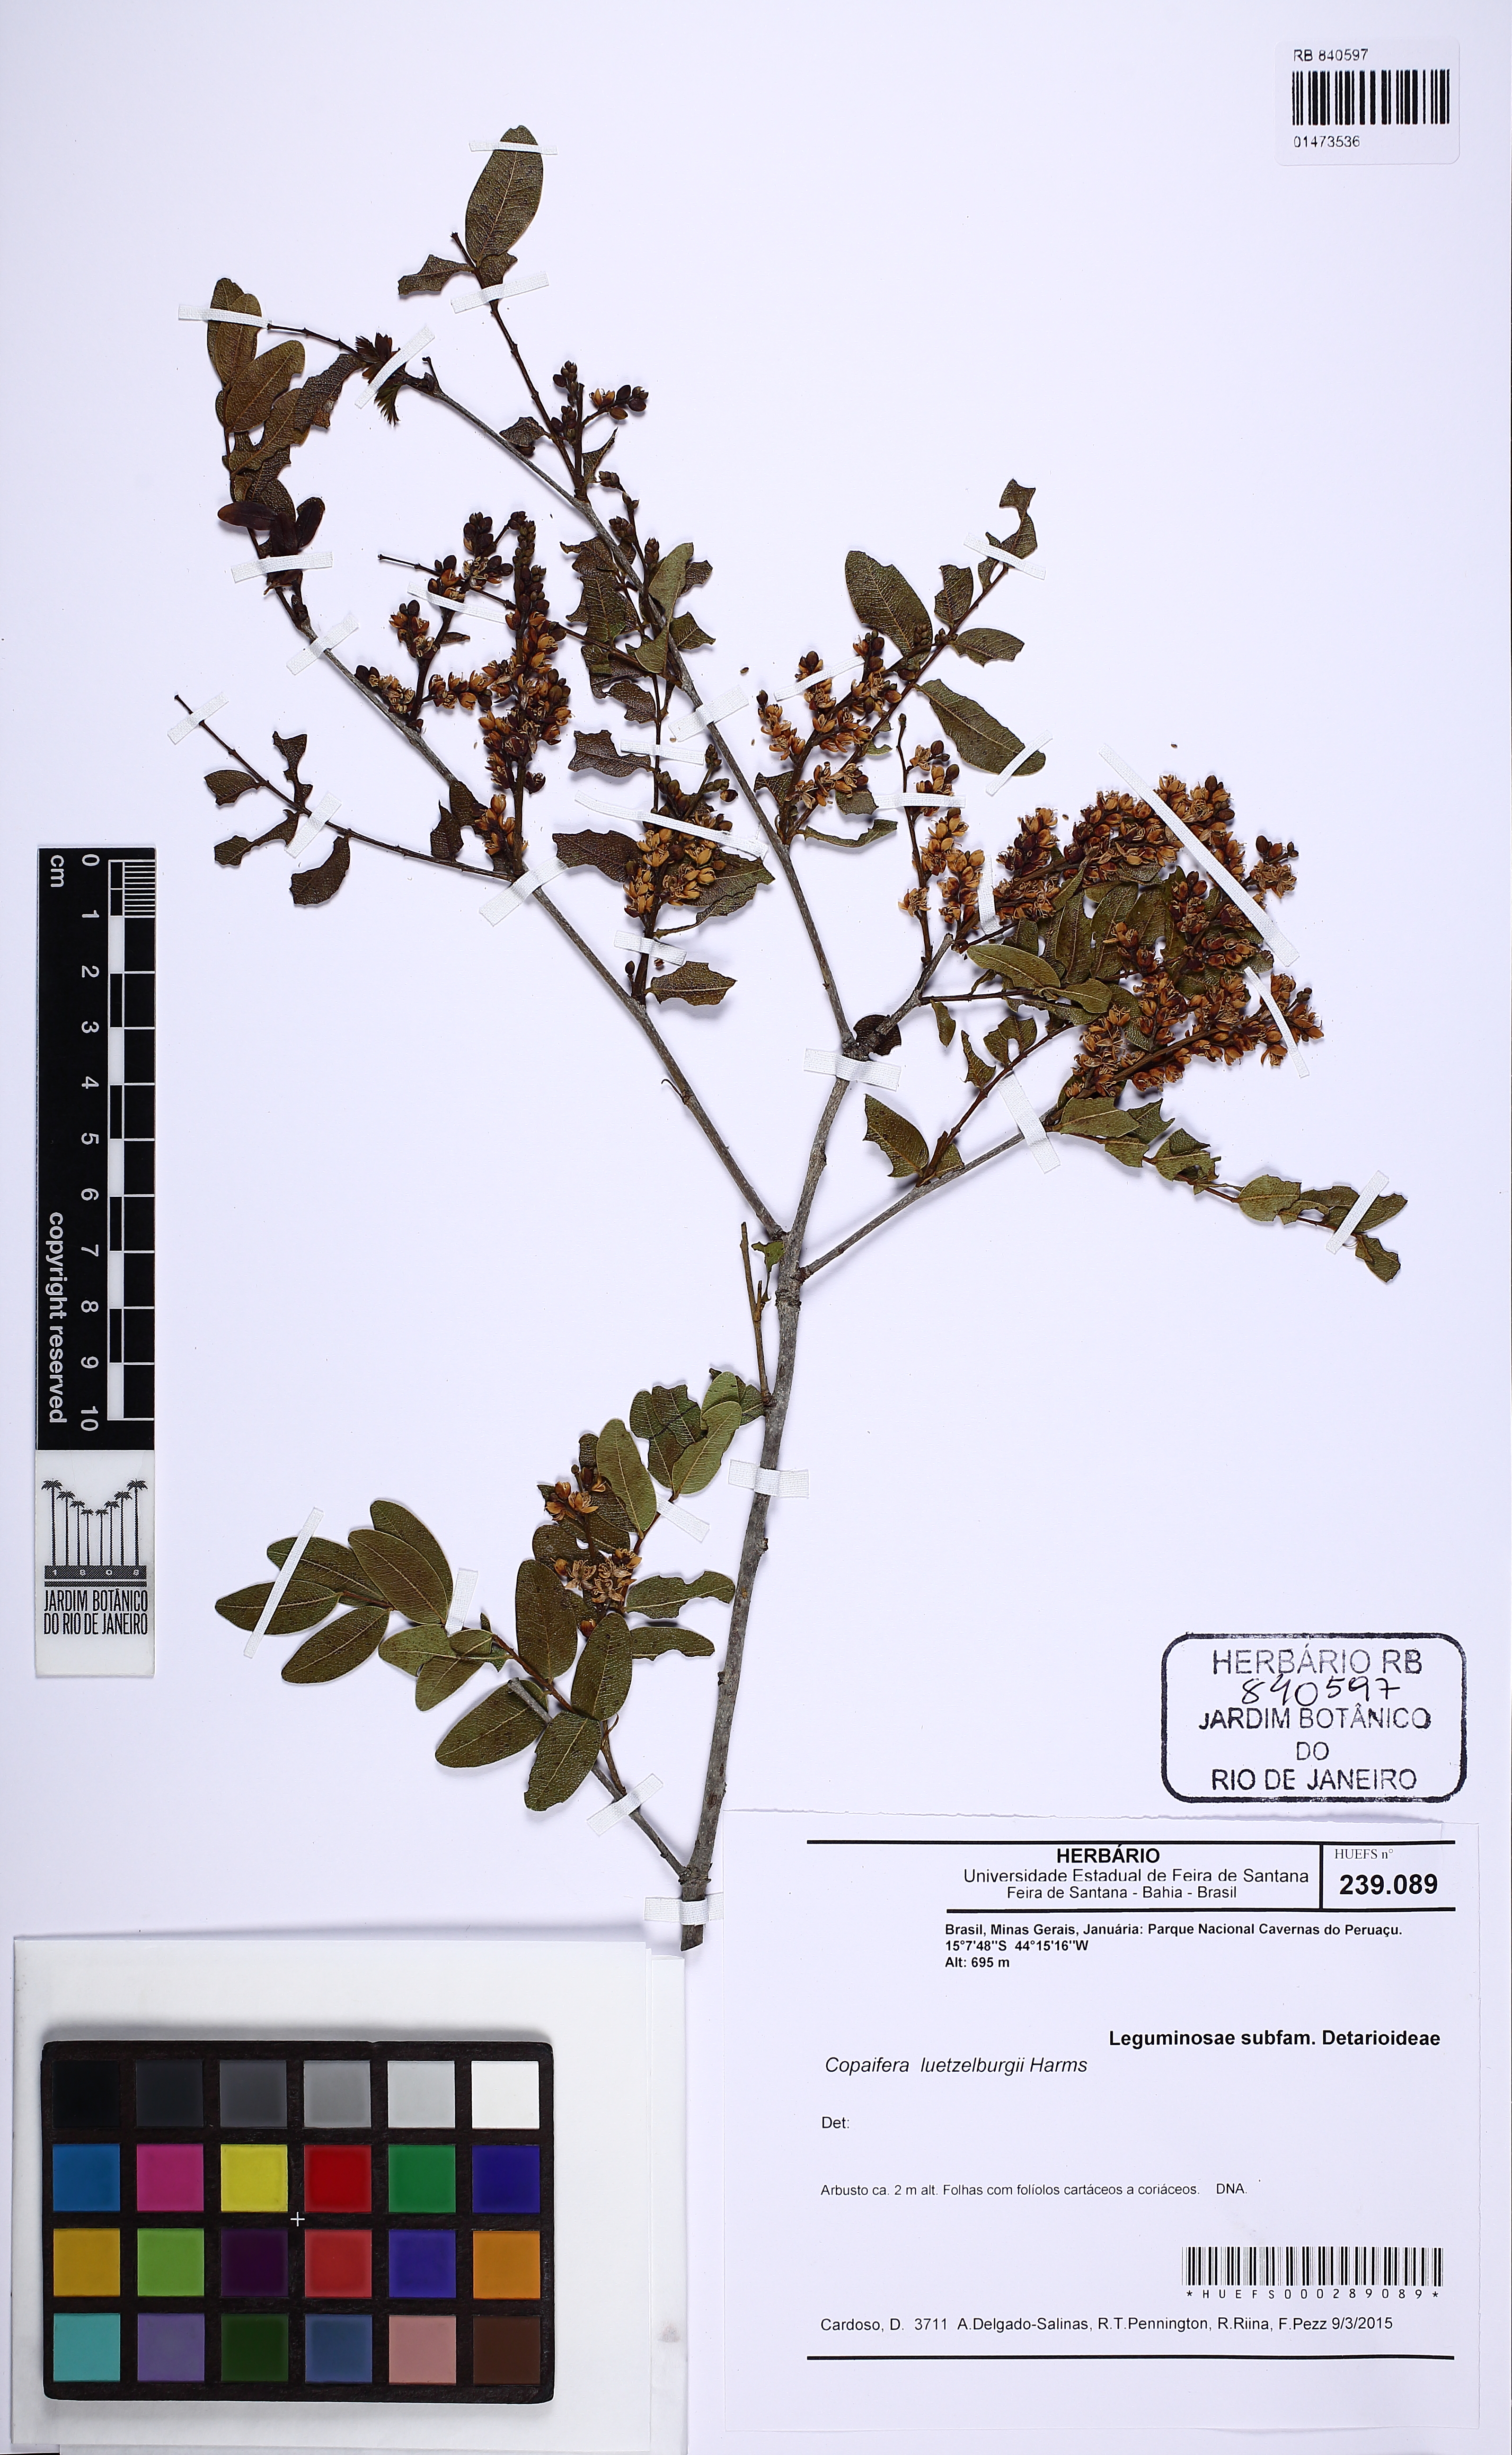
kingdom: Plantae
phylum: Tracheophyta
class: Magnoliopsida
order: Fabales
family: Fabaceae
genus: Copaifera
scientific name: Copaifera luetzelburgii
